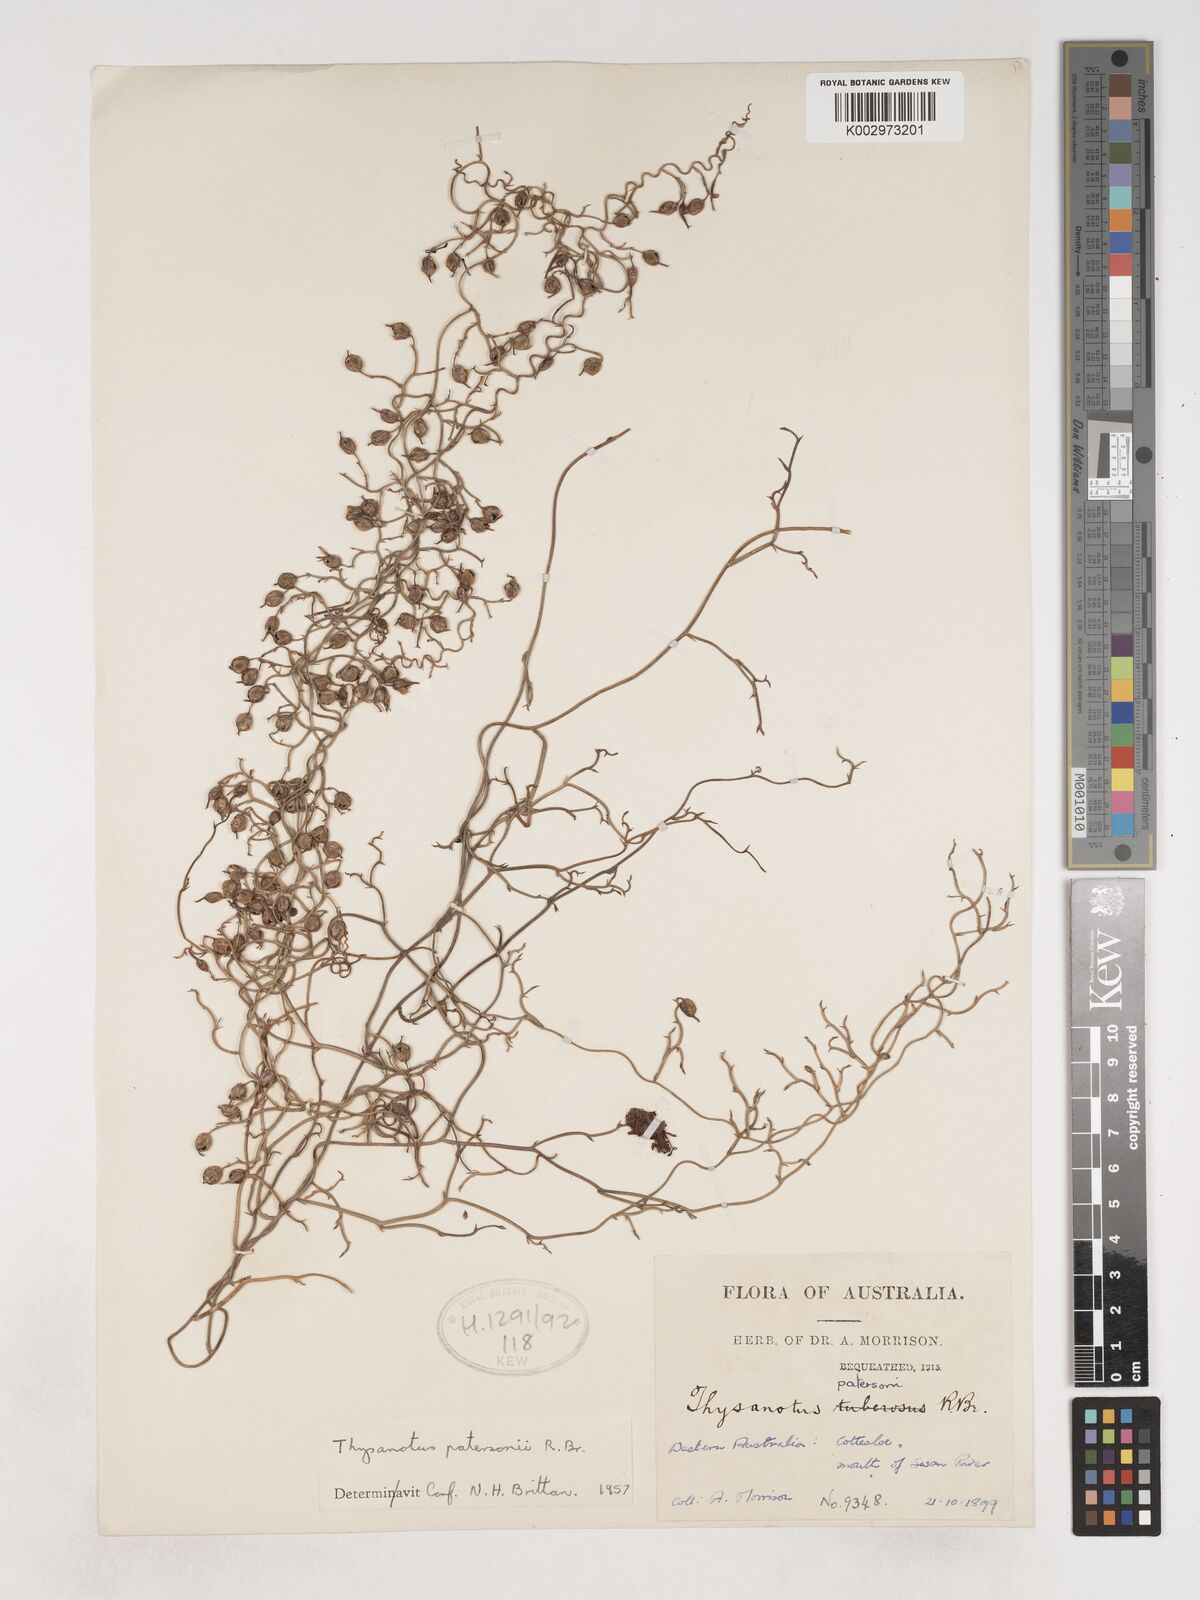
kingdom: Plantae
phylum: Tracheophyta
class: Liliopsida
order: Asparagales
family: Asparagaceae
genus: Thysanotus
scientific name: Thysanotus patersonii
